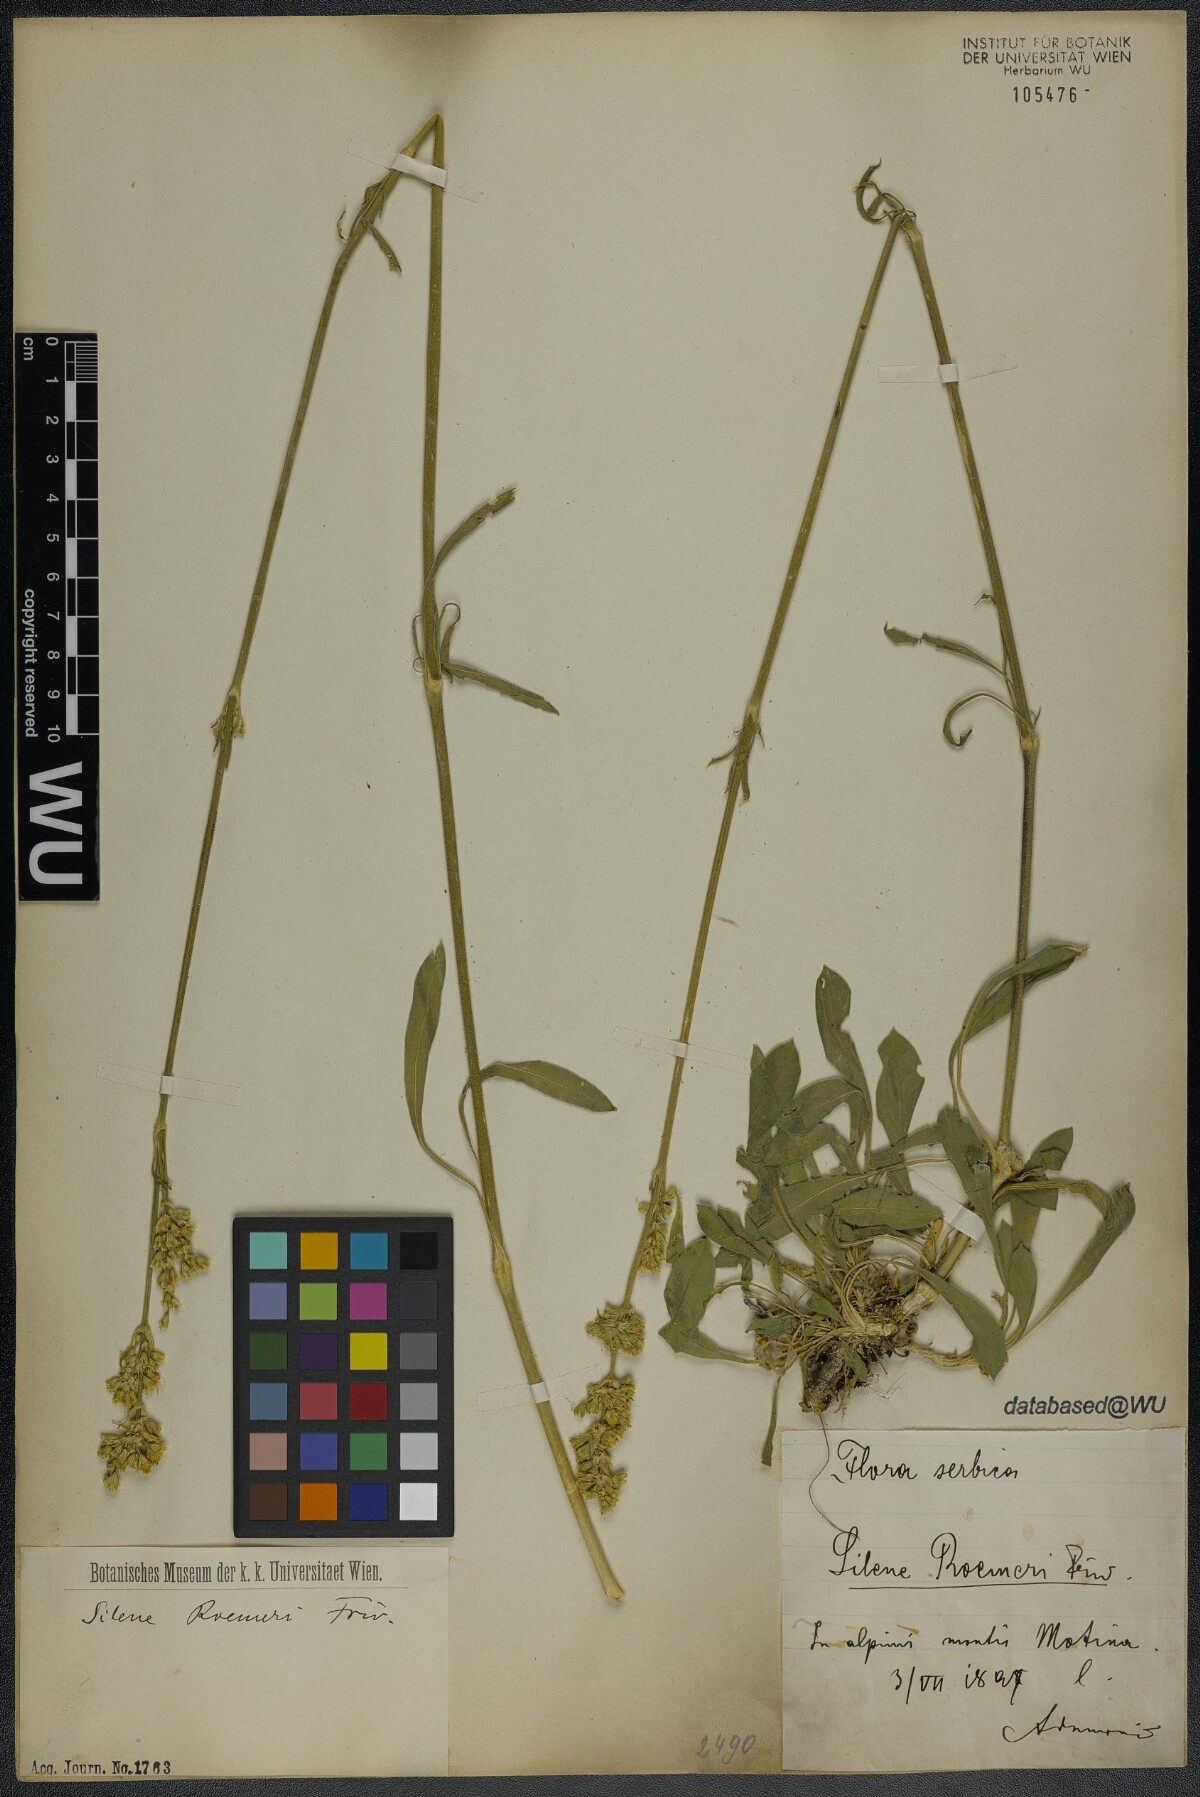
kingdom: Plantae
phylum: Tracheophyta
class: Magnoliopsida
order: Caryophyllales
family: Caryophyllaceae
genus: Silene
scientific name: Silene roemeri
